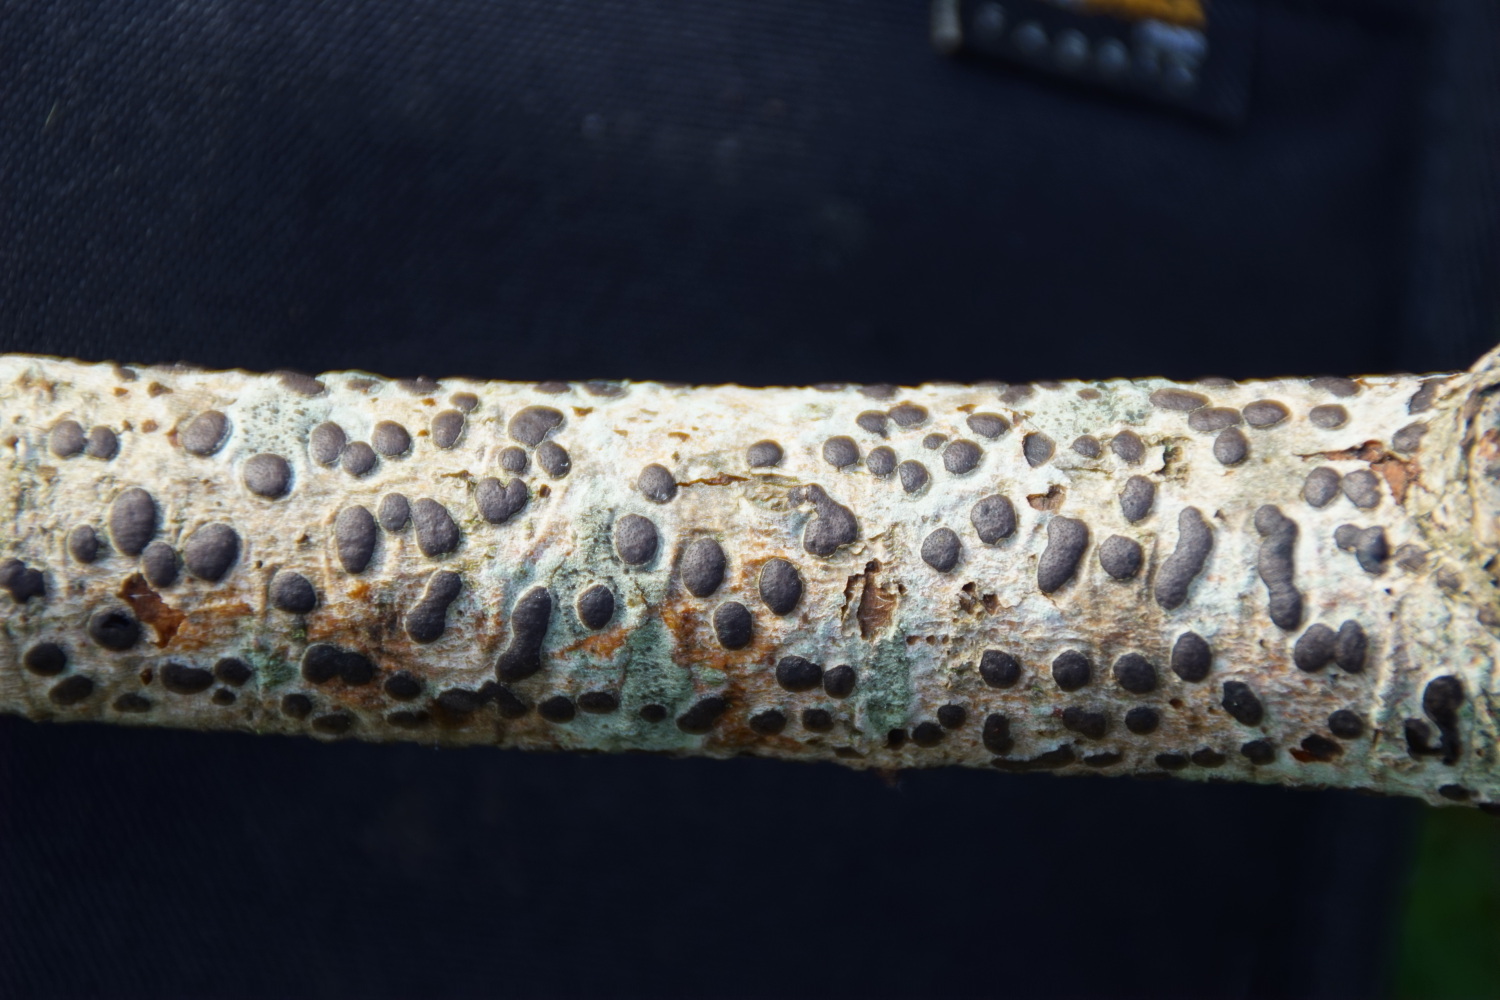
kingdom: Fungi
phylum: Ascomycota
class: Sordariomycetes
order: Xylariales
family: Diatrypaceae
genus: Diatrype
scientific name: Diatrype bullata
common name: pile-kulskorpe
